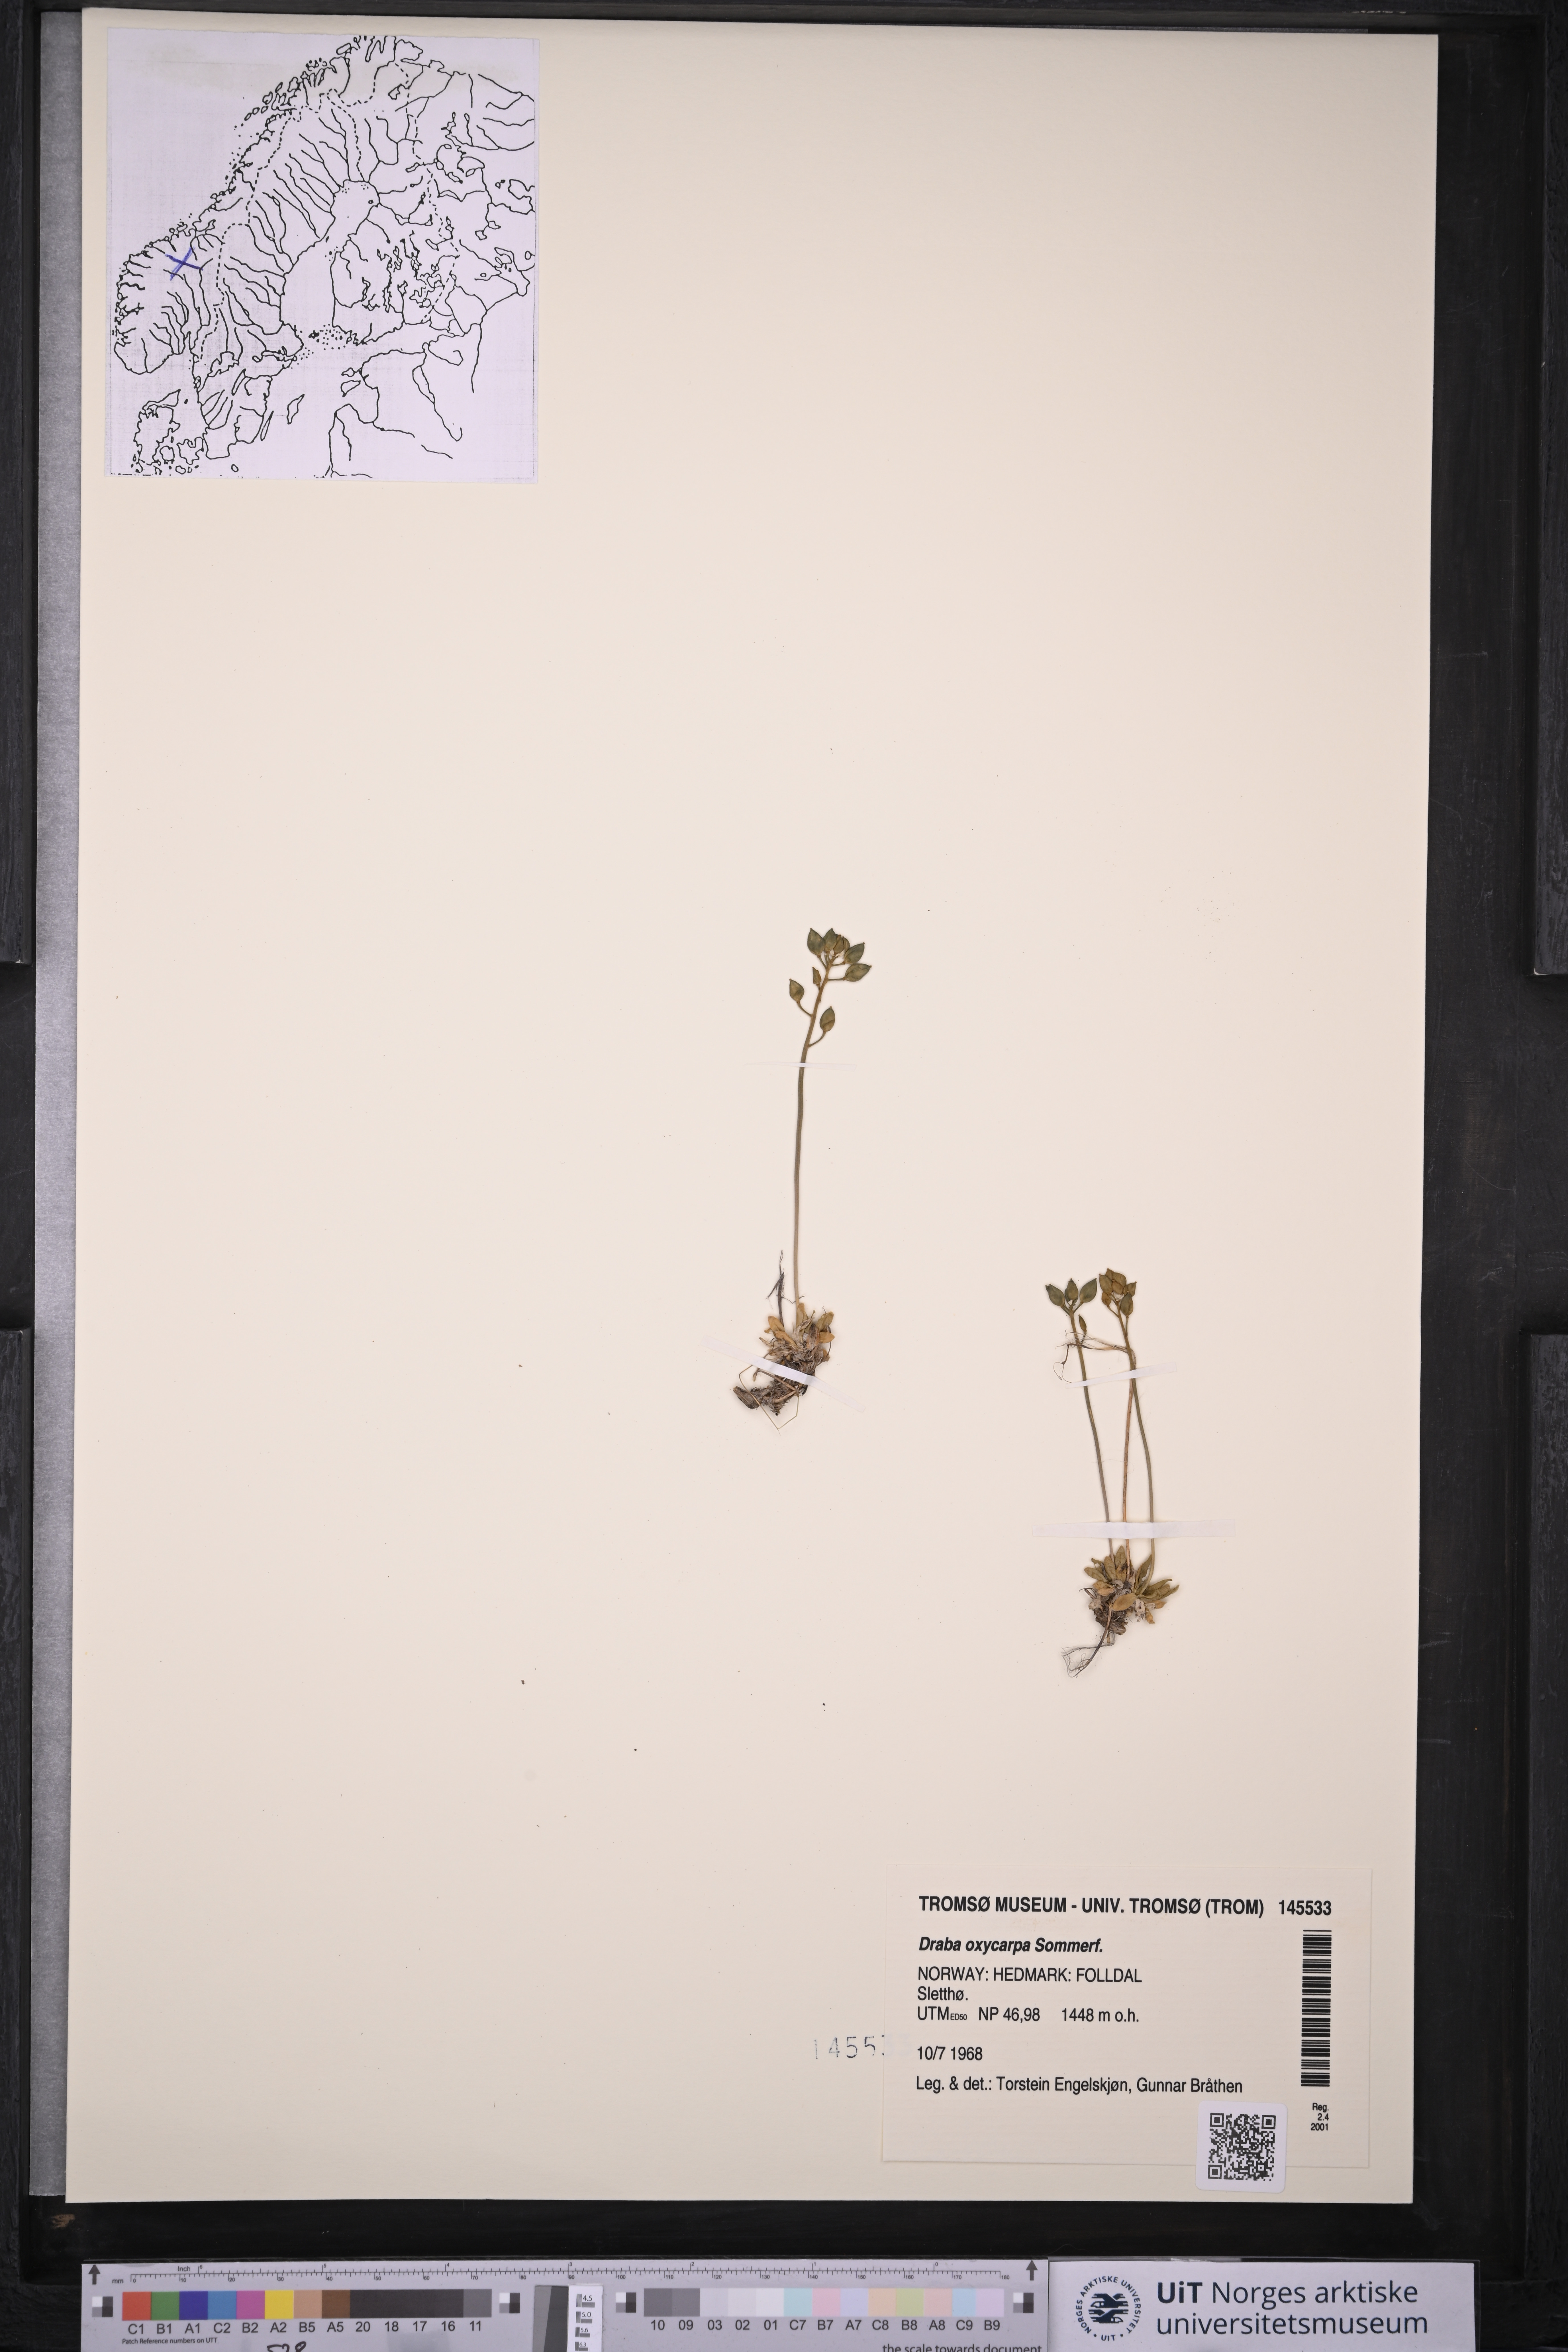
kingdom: Plantae
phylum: Tracheophyta
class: Magnoliopsida
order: Brassicales
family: Brassicaceae
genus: Draba
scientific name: Draba oxycarpa
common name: Sharp-fruited whitlow-grass
